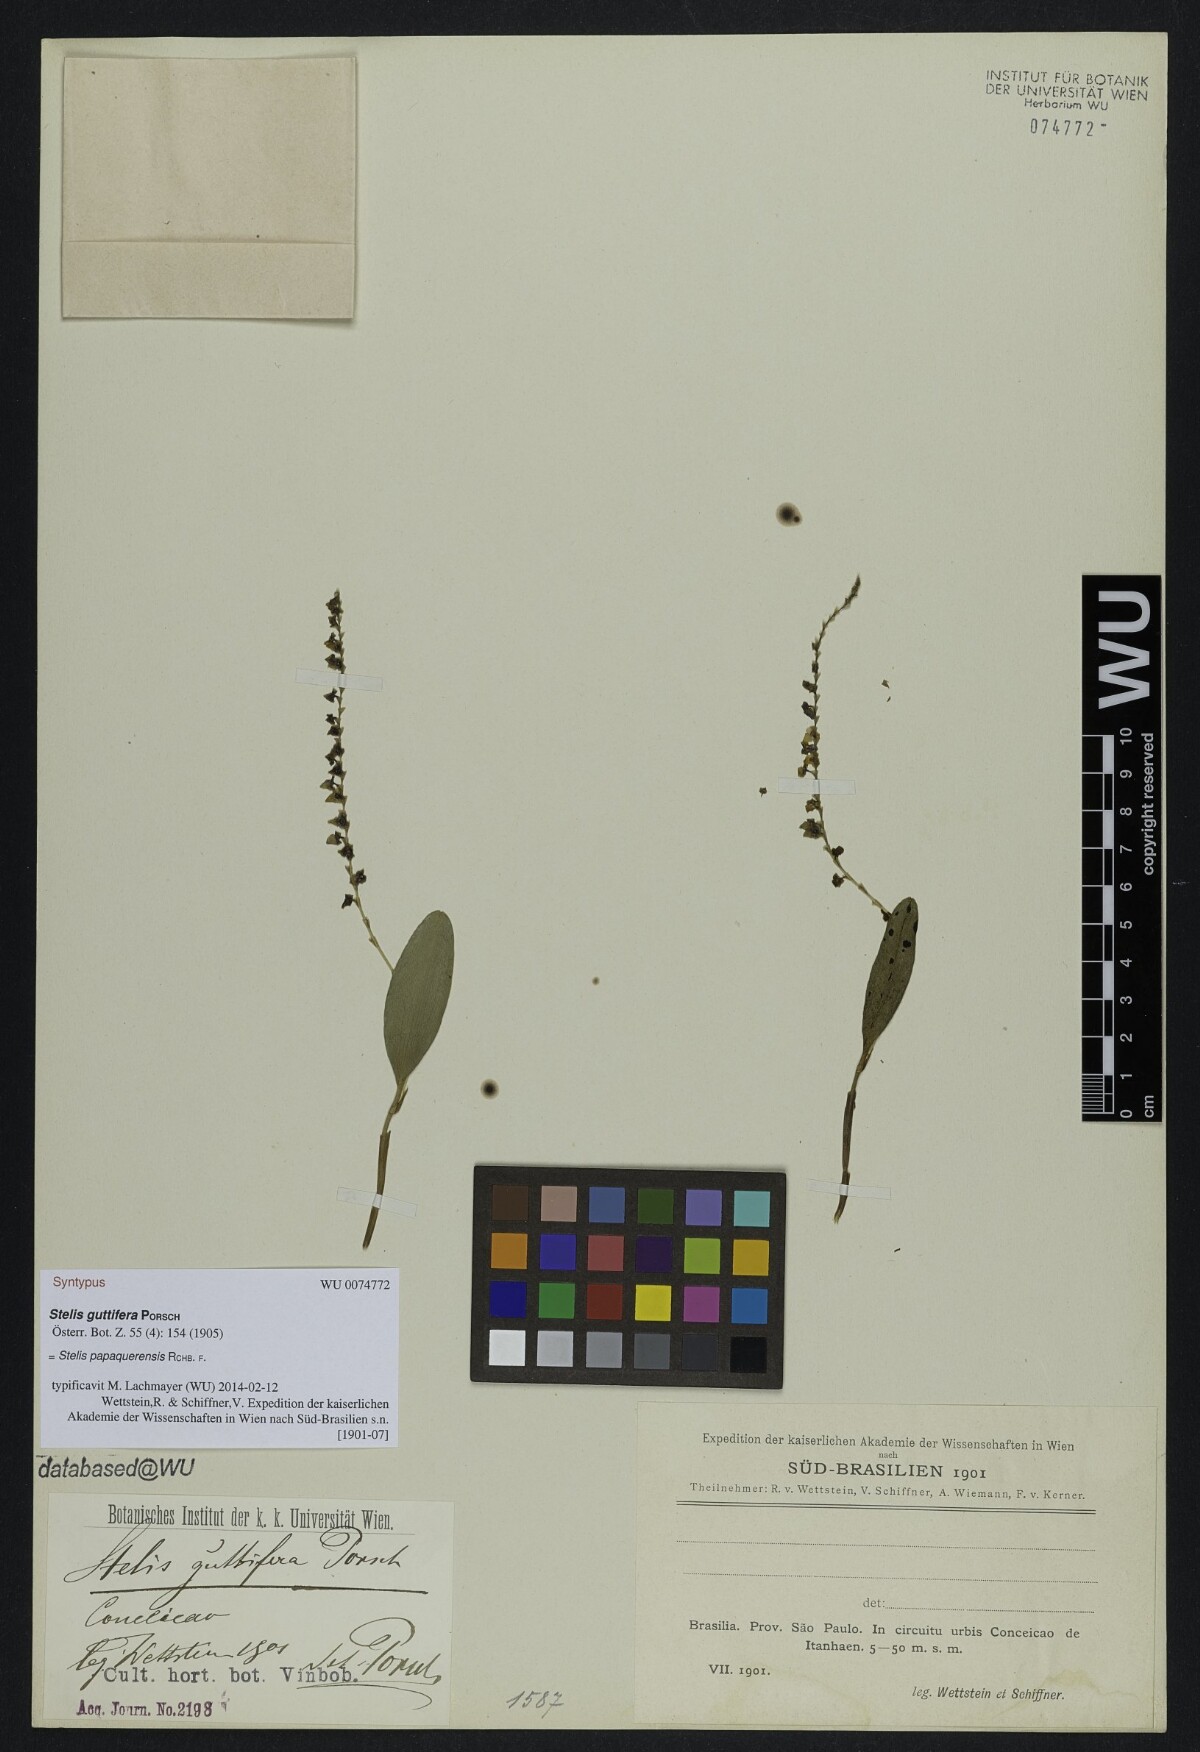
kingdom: Plantae
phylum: Tracheophyta
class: Liliopsida
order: Asparagales
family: Orchidaceae
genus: Stelis
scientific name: Stelis papaquerensis
